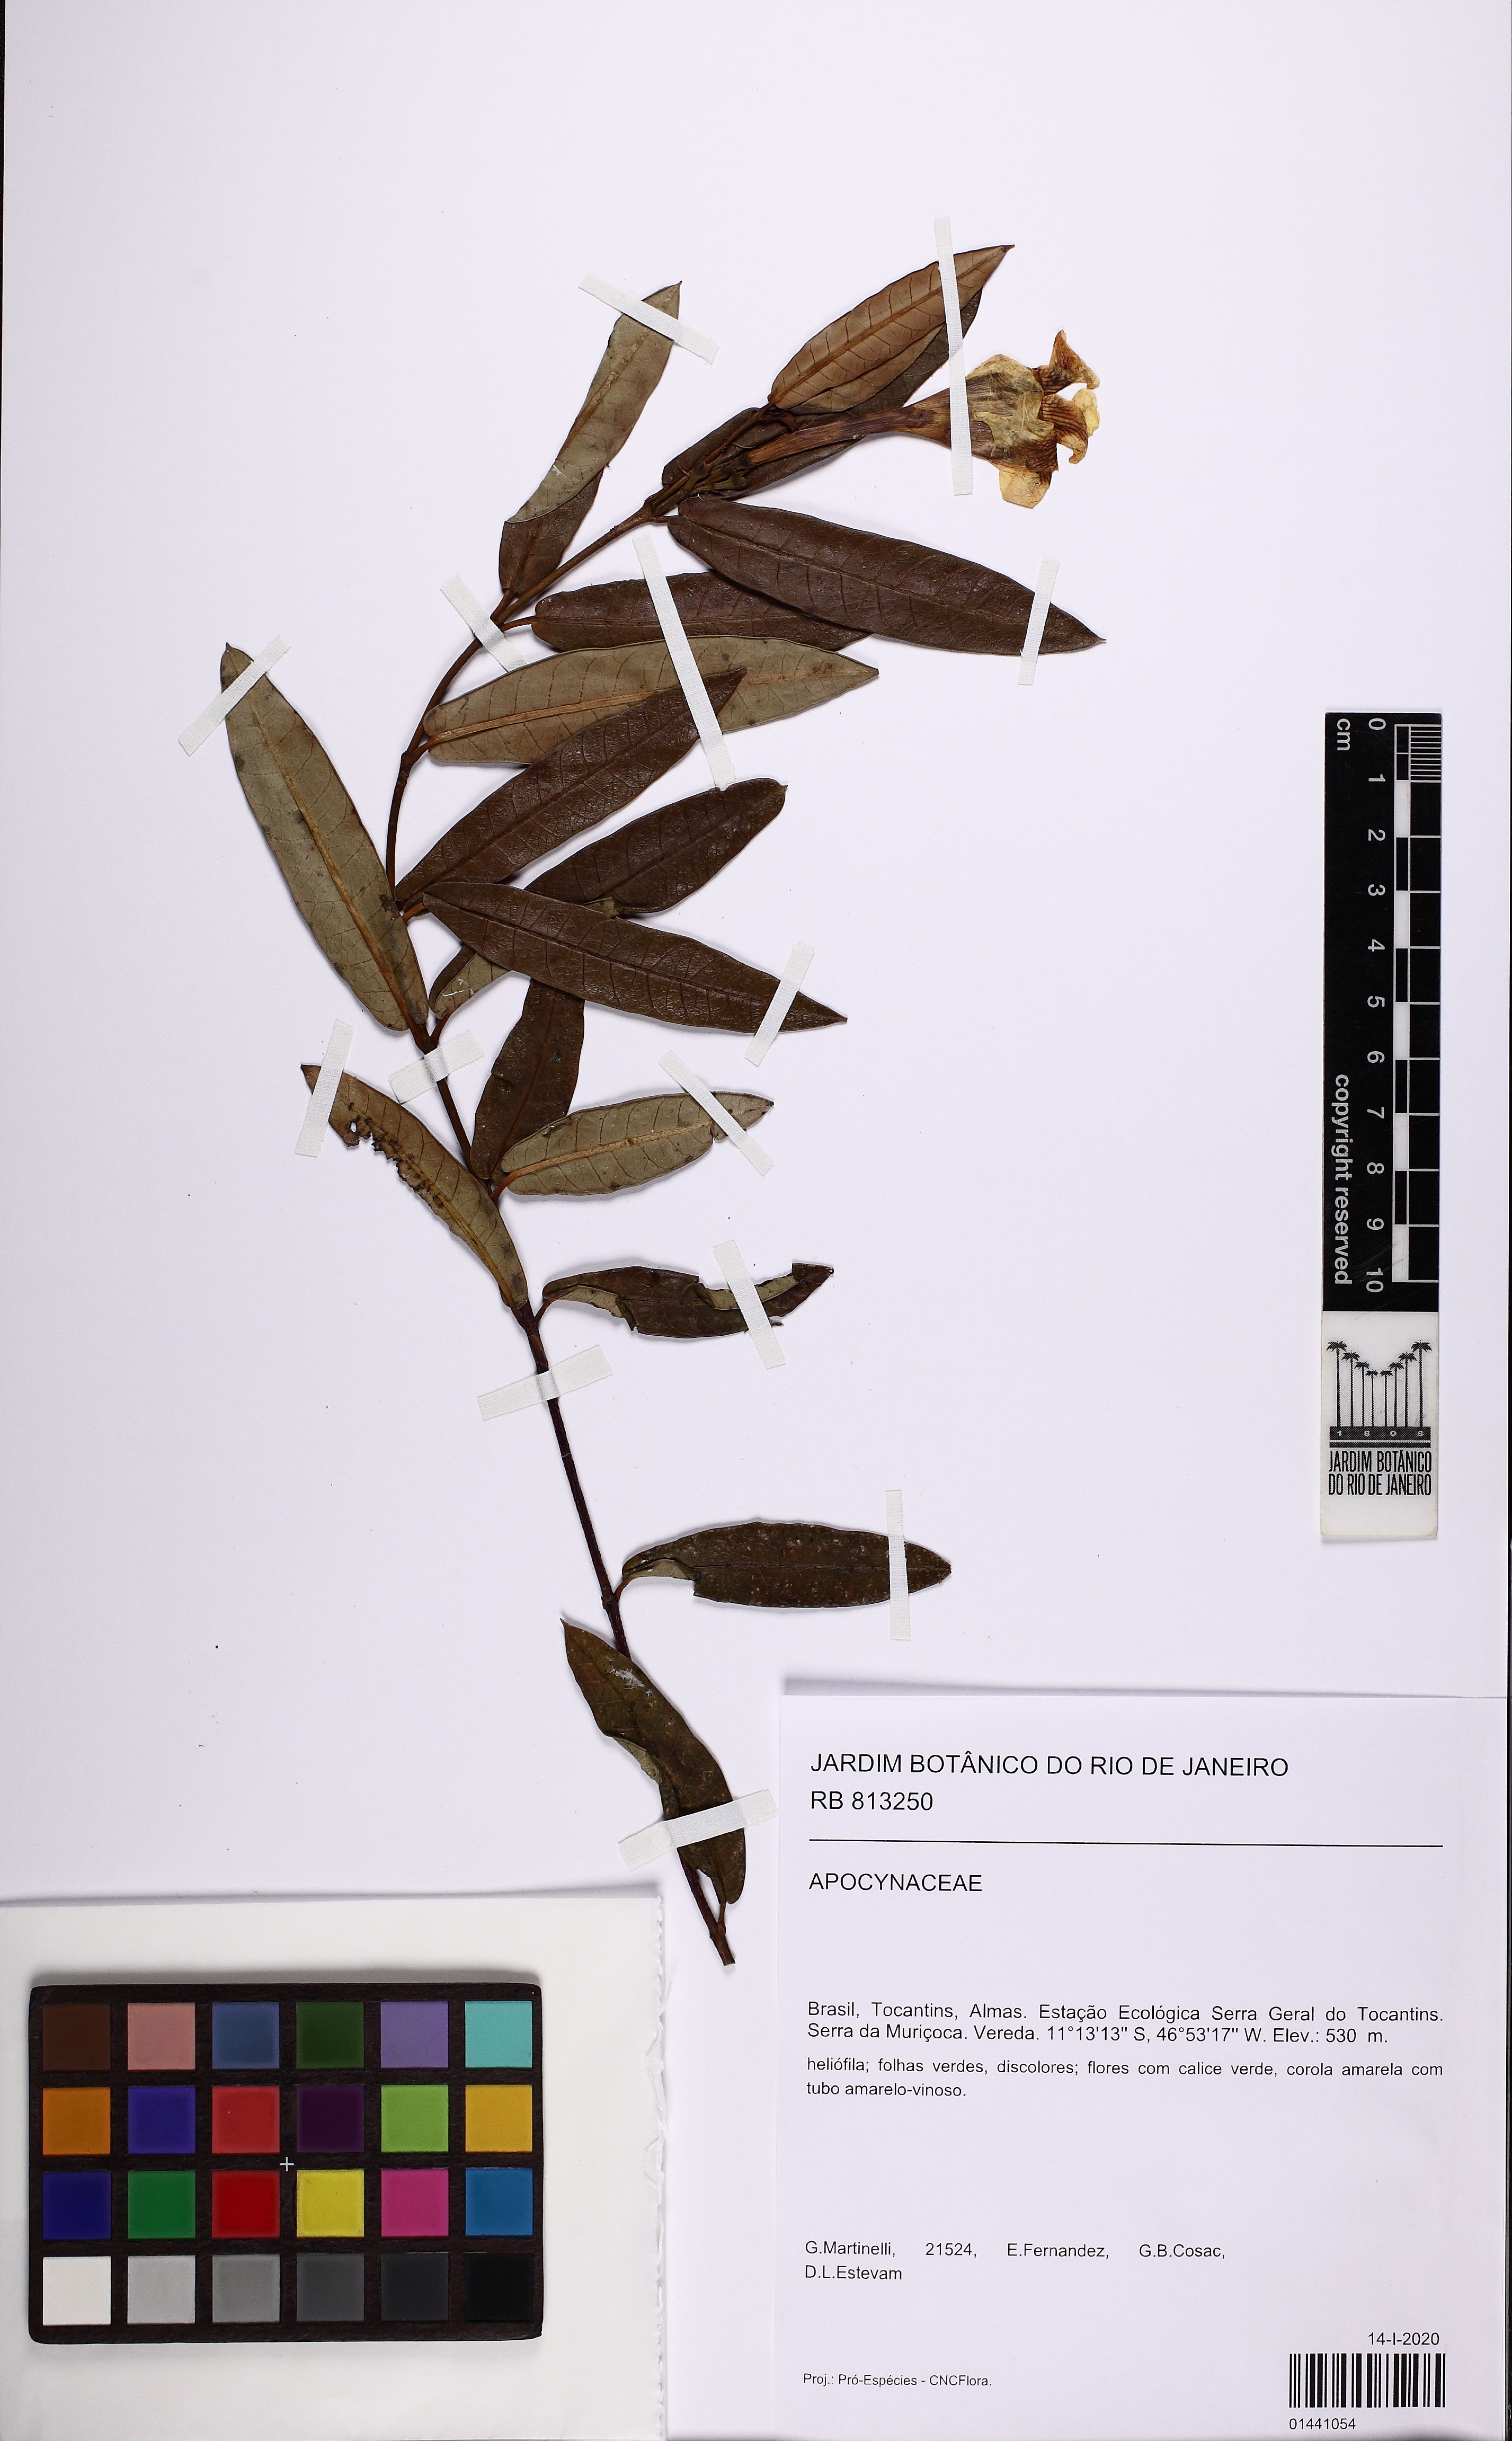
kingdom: Plantae
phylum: Tracheophyta
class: Magnoliopsida
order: Gentianales
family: Apocynaceae
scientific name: Apocynaceae
